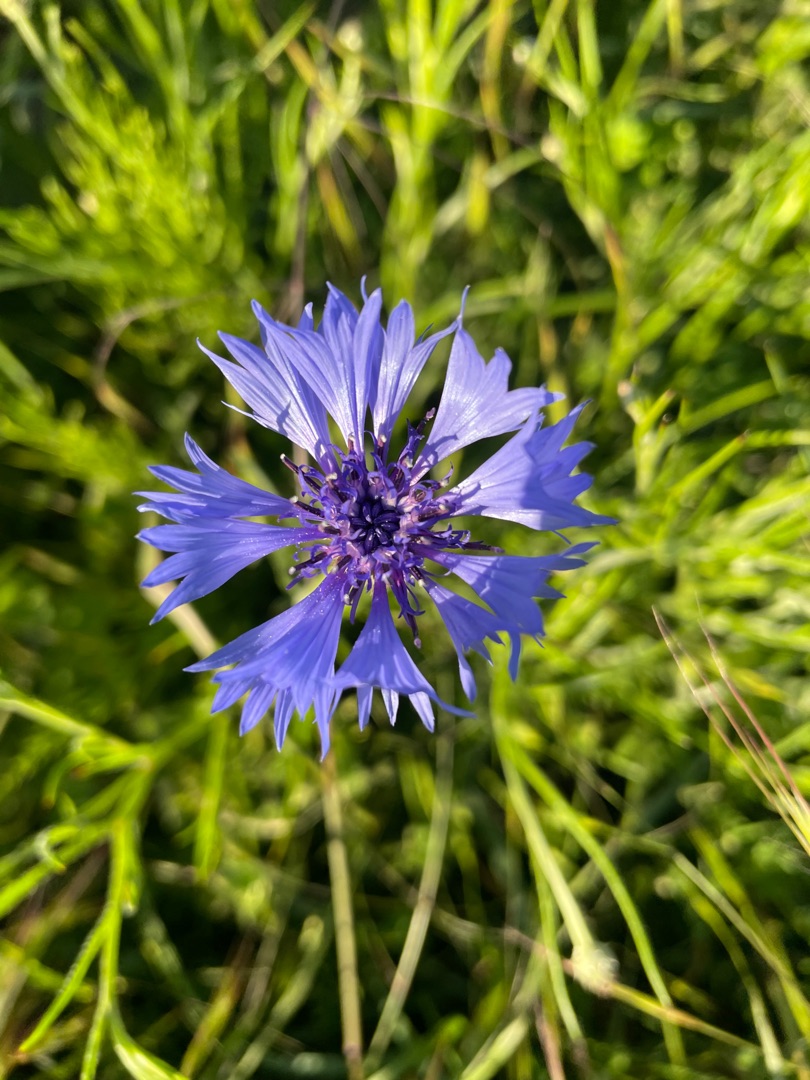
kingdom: Plantae
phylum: Tracheophyta
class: Magnoliopsida
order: Asterales
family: Asteraceae
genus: Centaurea
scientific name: Centaurea cyanus
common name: Kornblomst
